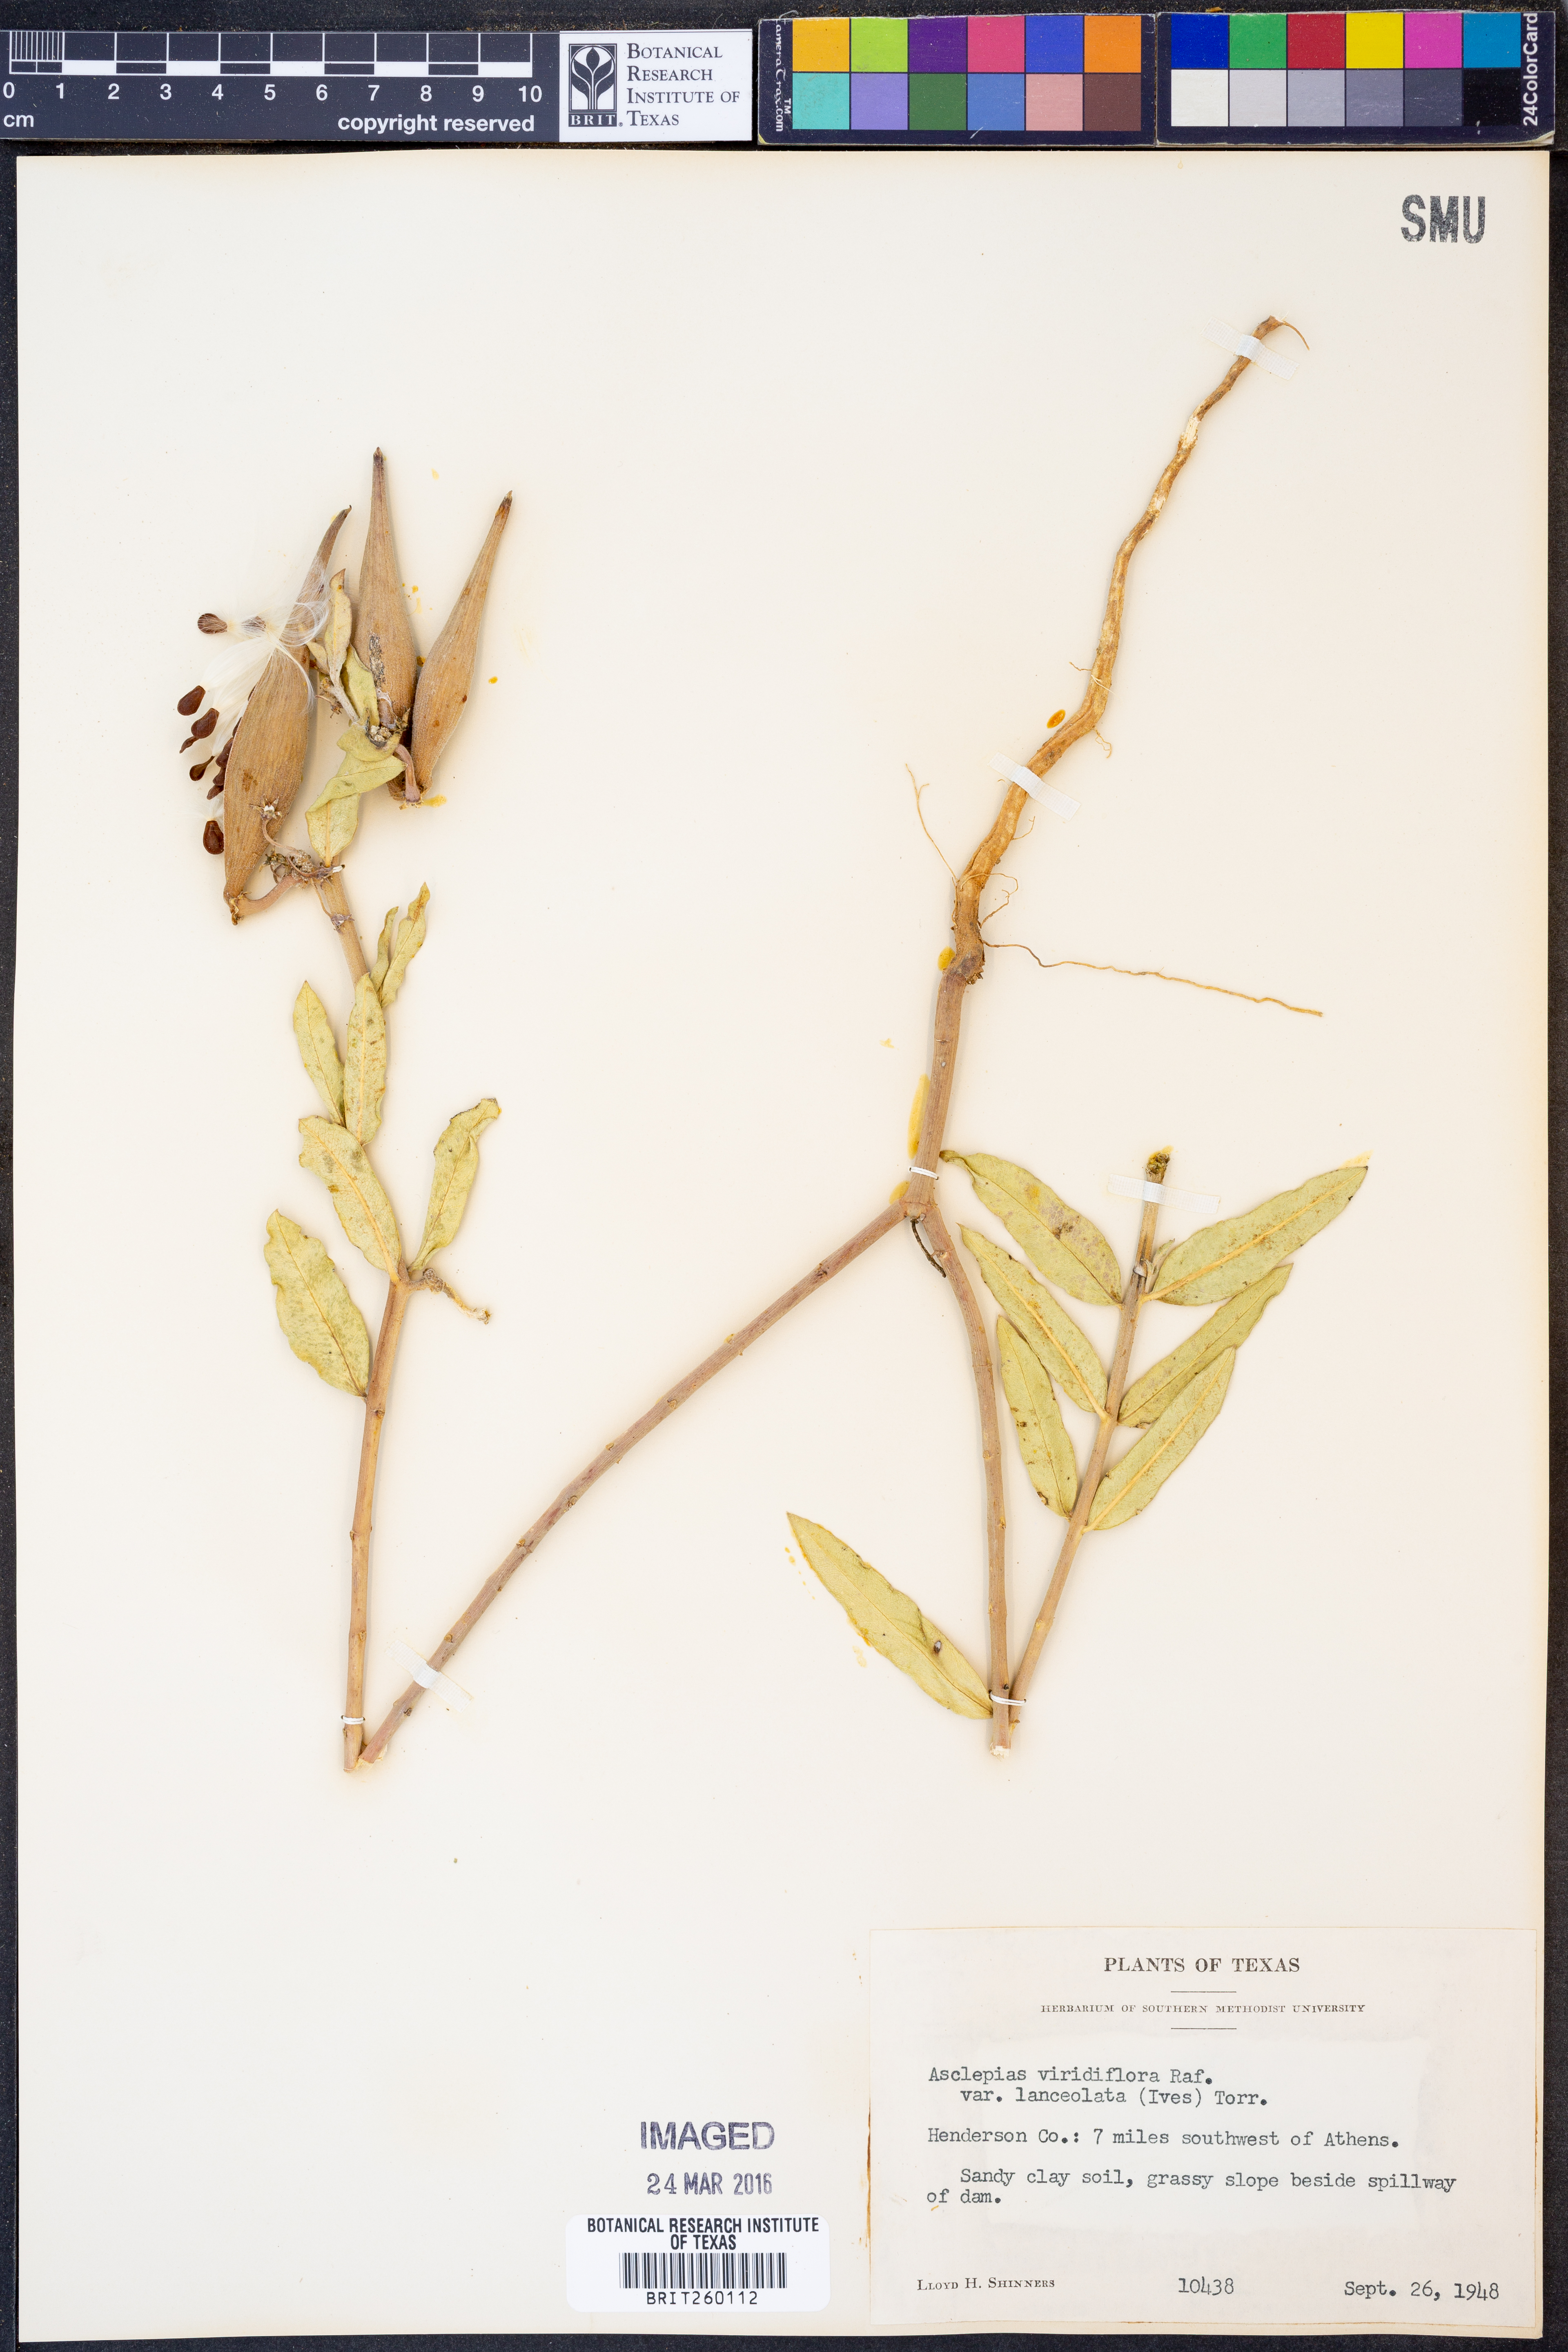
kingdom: Plantae
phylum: Tracheophyta
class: Magnoliopsida
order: Gentianales
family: Apocynaceae
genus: Asclepias
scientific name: Asclepias viridiflora
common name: Green comet milkweed
